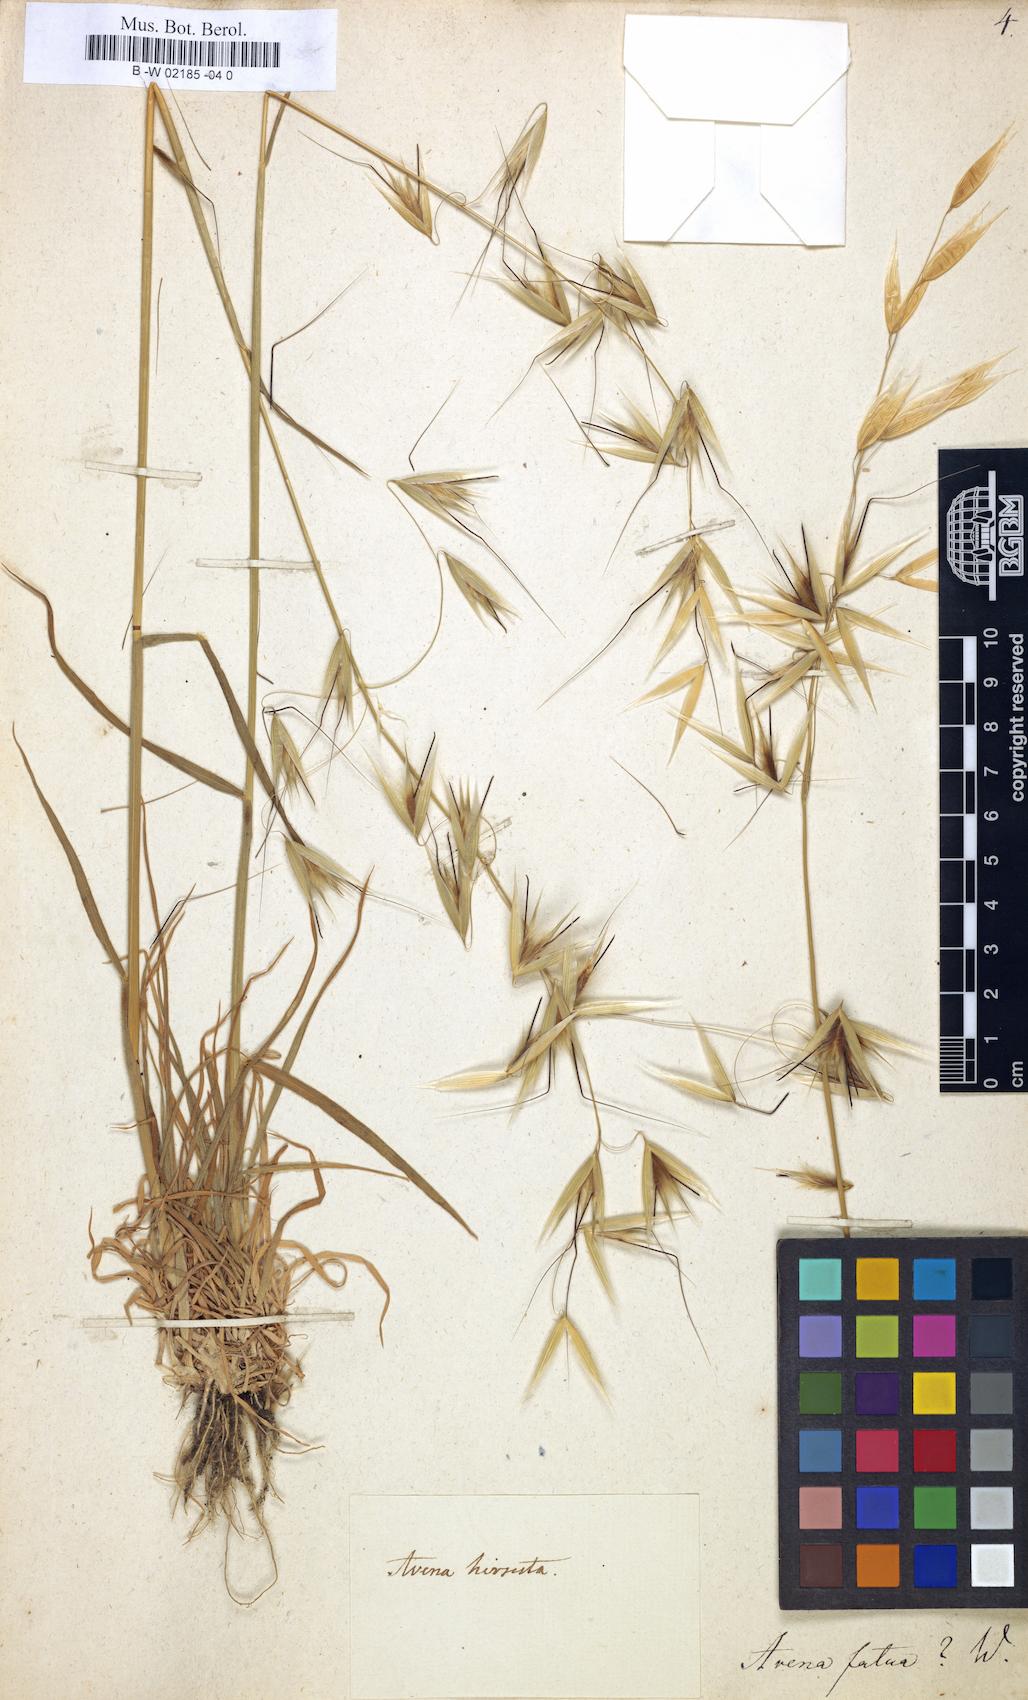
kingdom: Plantae
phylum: Tracheophyta
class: Liliopsida
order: Poales
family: Poaceae
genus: Avena
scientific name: Avena fatua
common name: Wild oat
